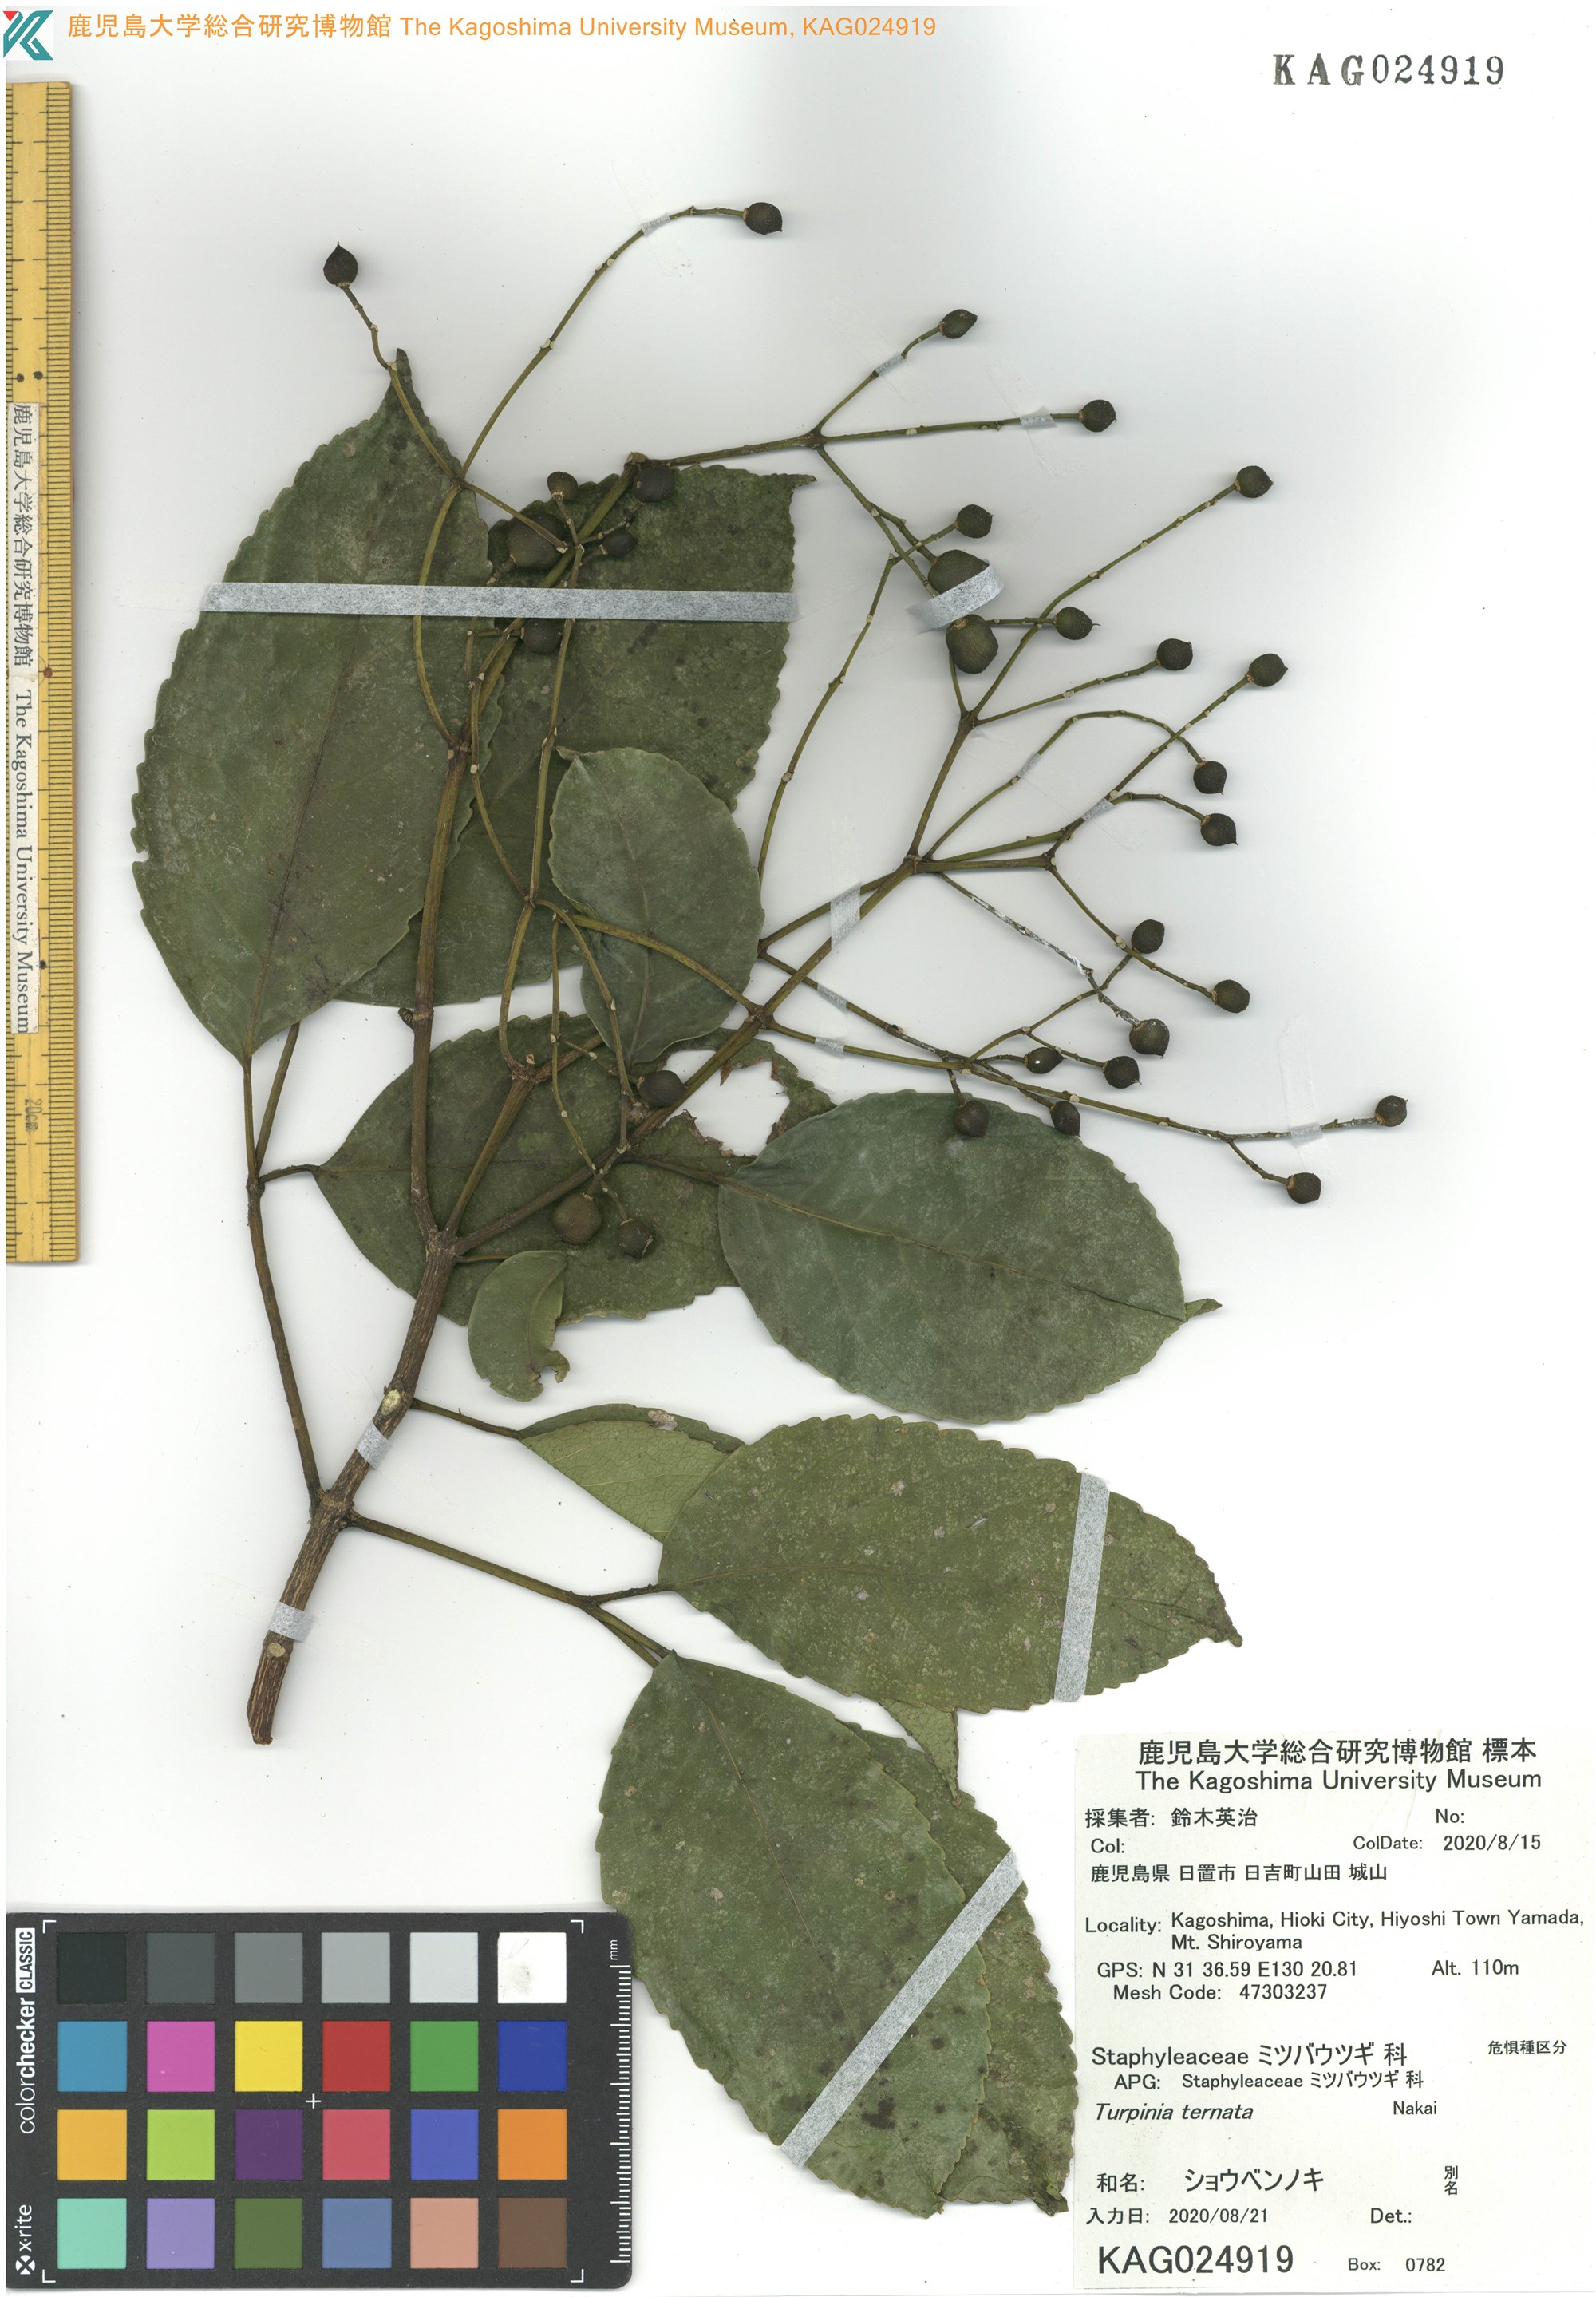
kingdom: Plantae
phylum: Tracheophyta
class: Magnoliopsida
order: Crossosomatales
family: Staphyleaceae
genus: Turpinia
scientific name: Turpinia ternata
